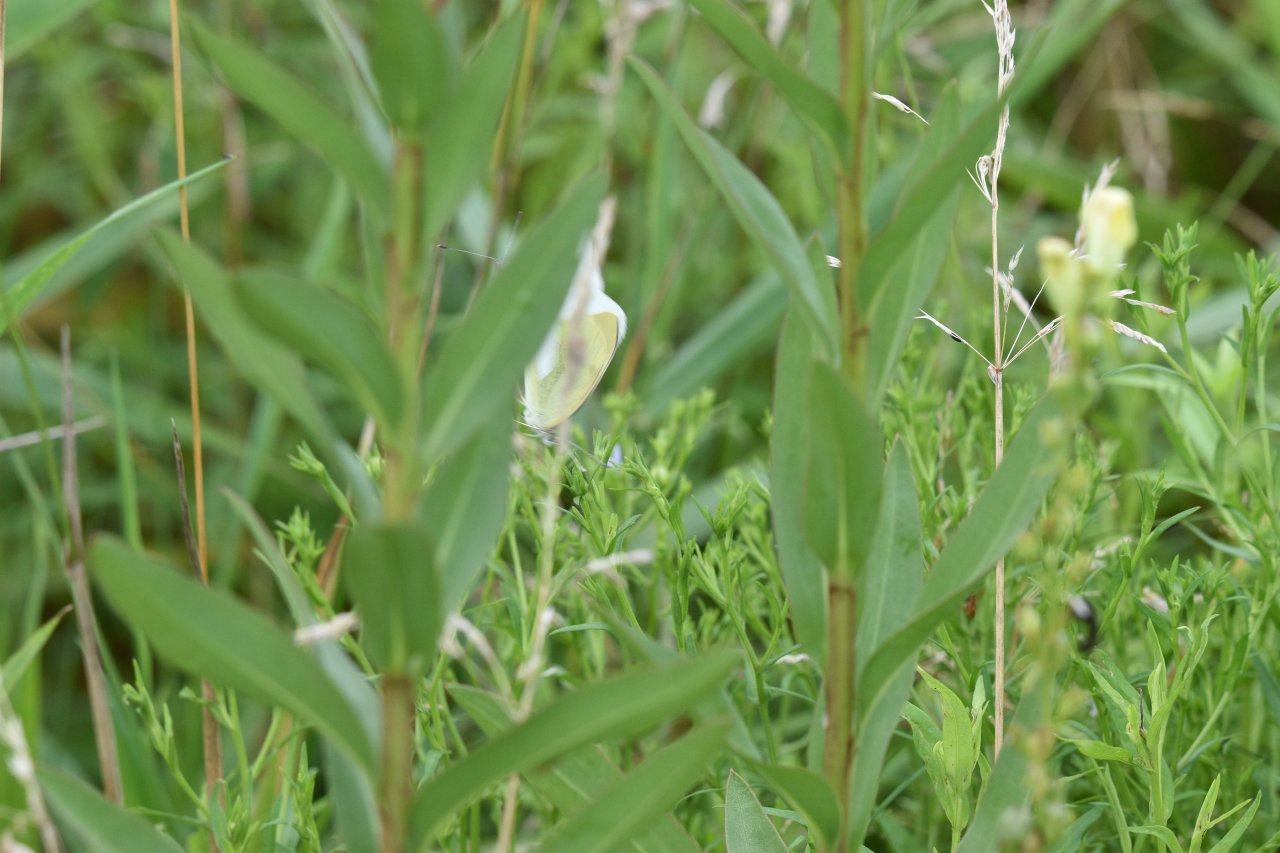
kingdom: Animalia
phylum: Arthropoda
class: Insecta
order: Lepidoptera
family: Pieridae
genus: Pieris
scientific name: Pieris rapae
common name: Cabbage White
